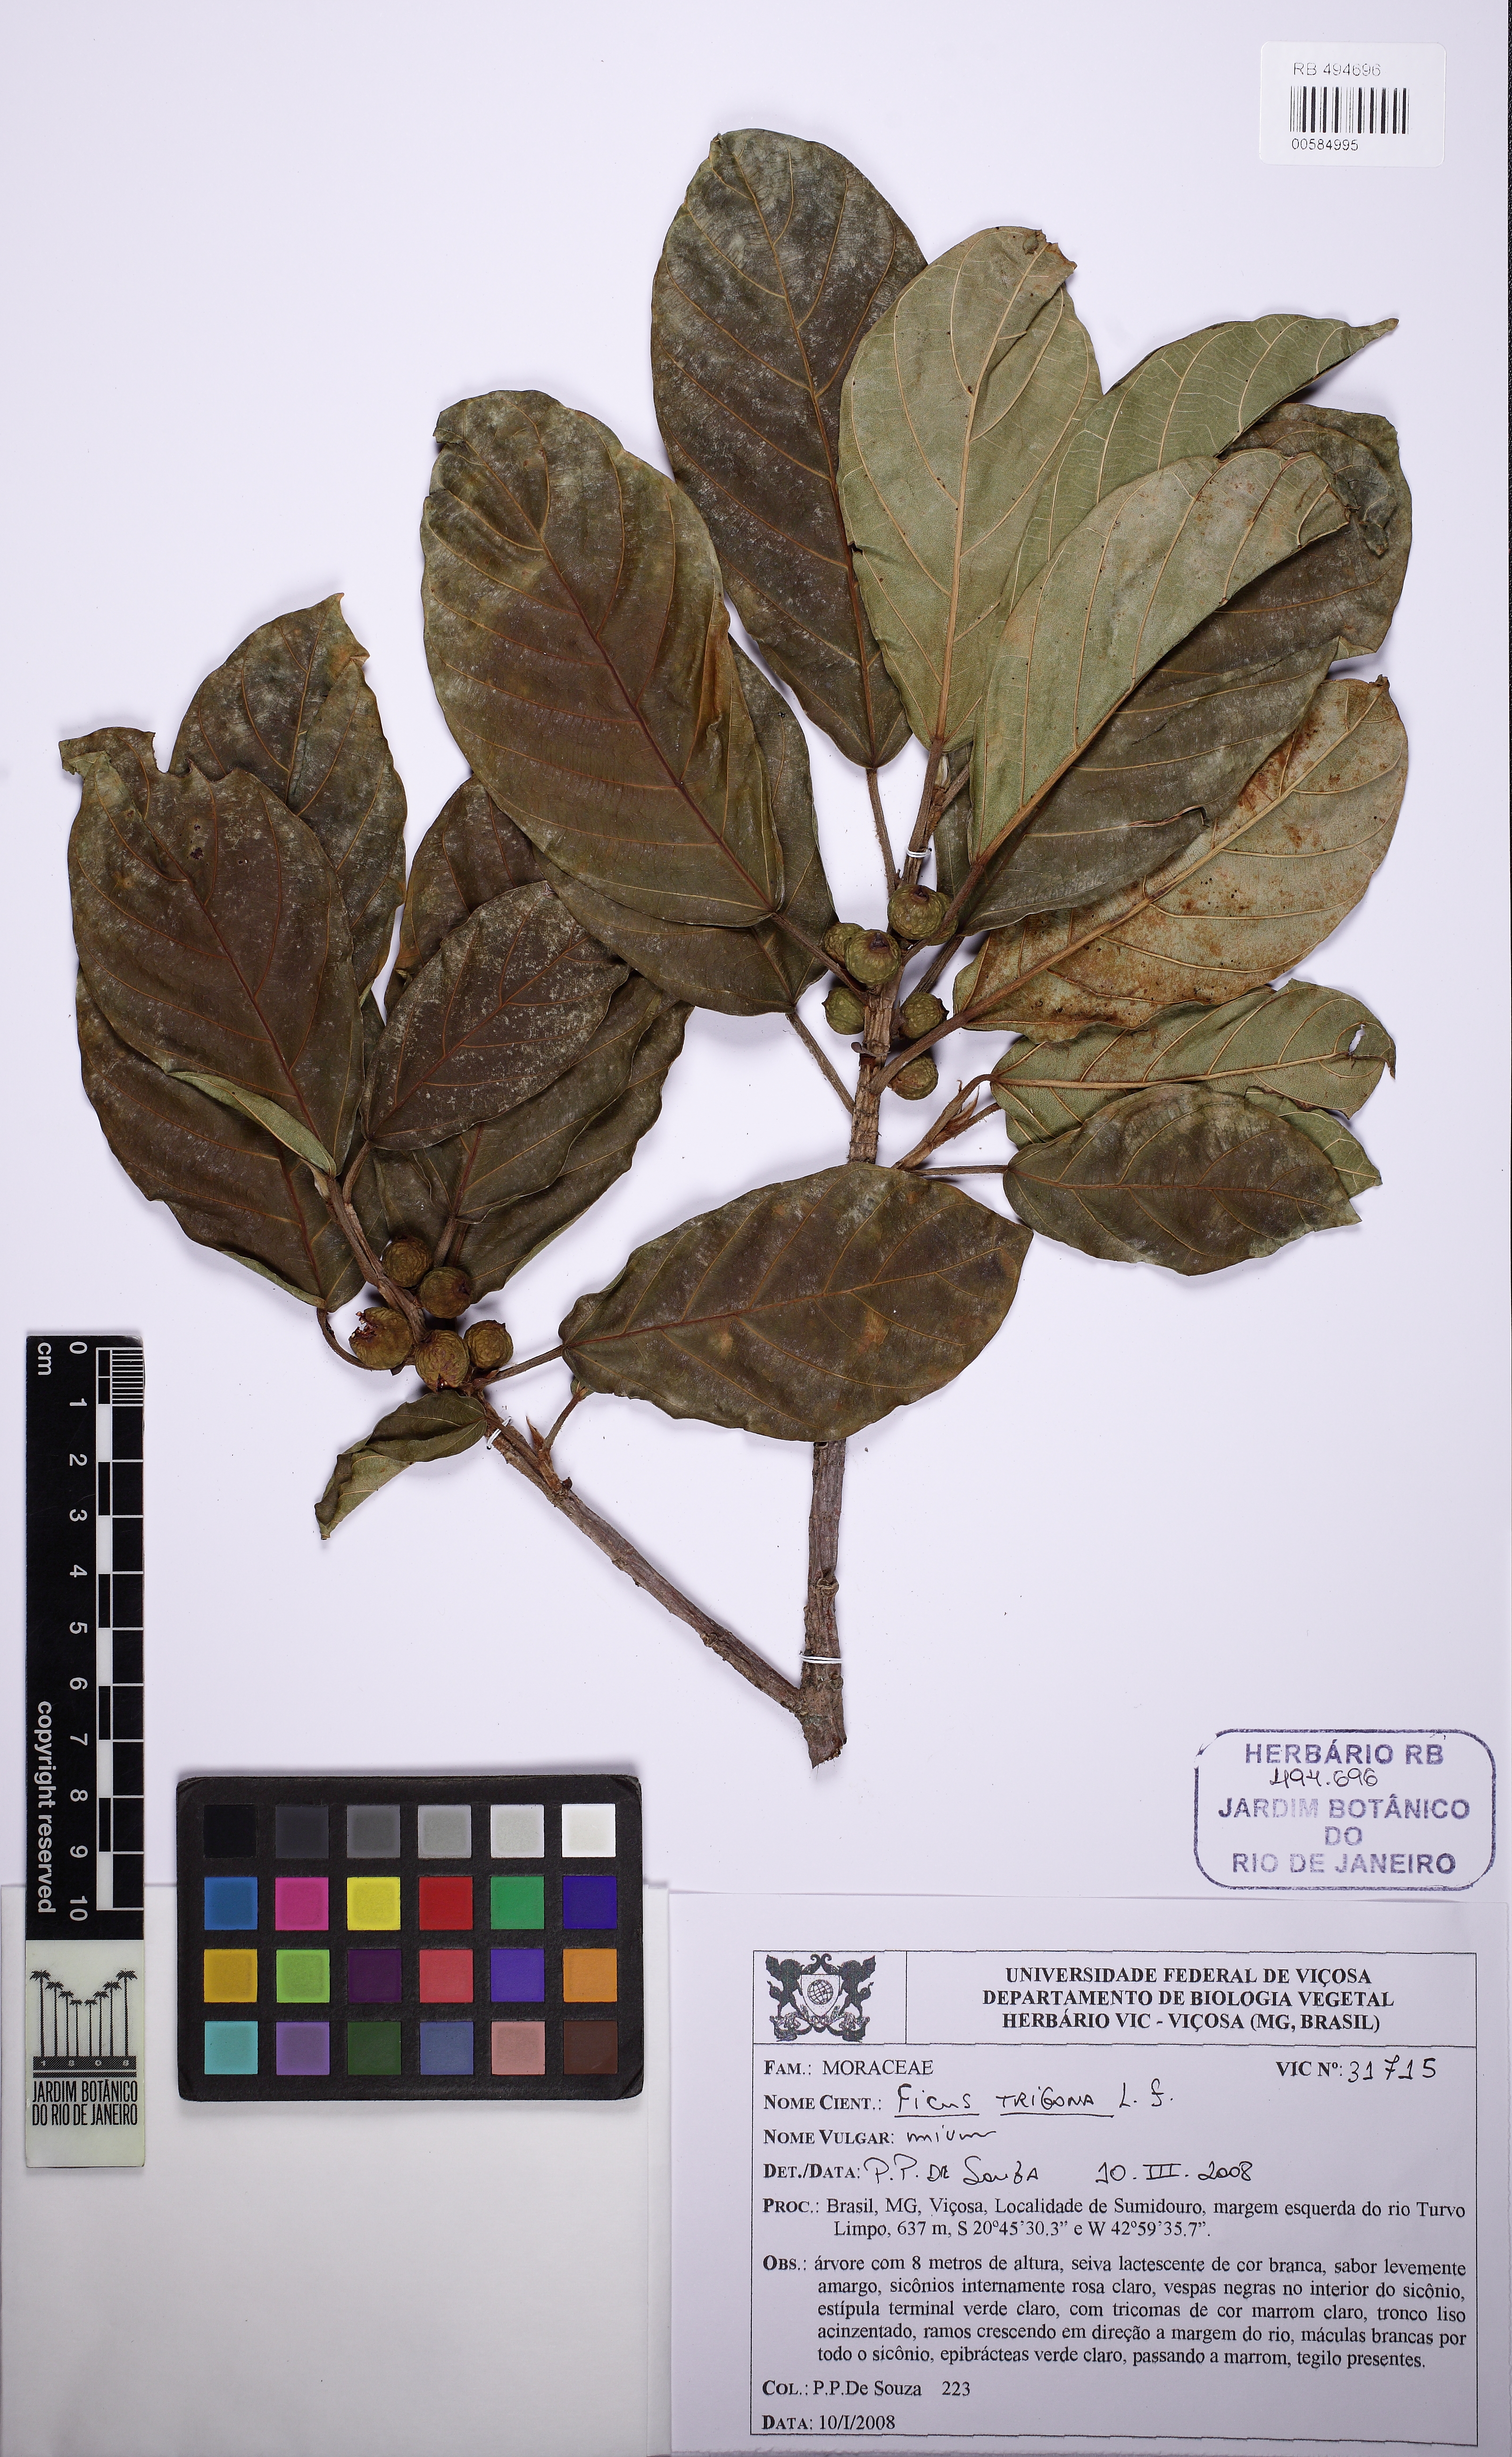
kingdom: Plantae
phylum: Tracheophyta
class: Magnoliopsida
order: Rosales
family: Moraceae
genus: Ficus
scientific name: Ficus trigona
